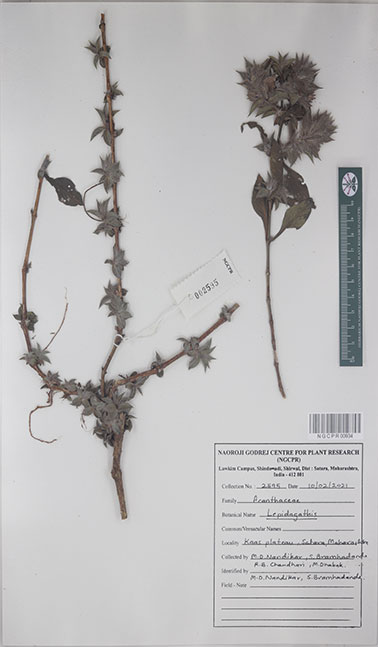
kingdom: Plantae
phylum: Tracheophyta
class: Magnoliopsida
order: Lamiales
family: Acanthaceae
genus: Lepidagathis
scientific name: Lepidagathis
